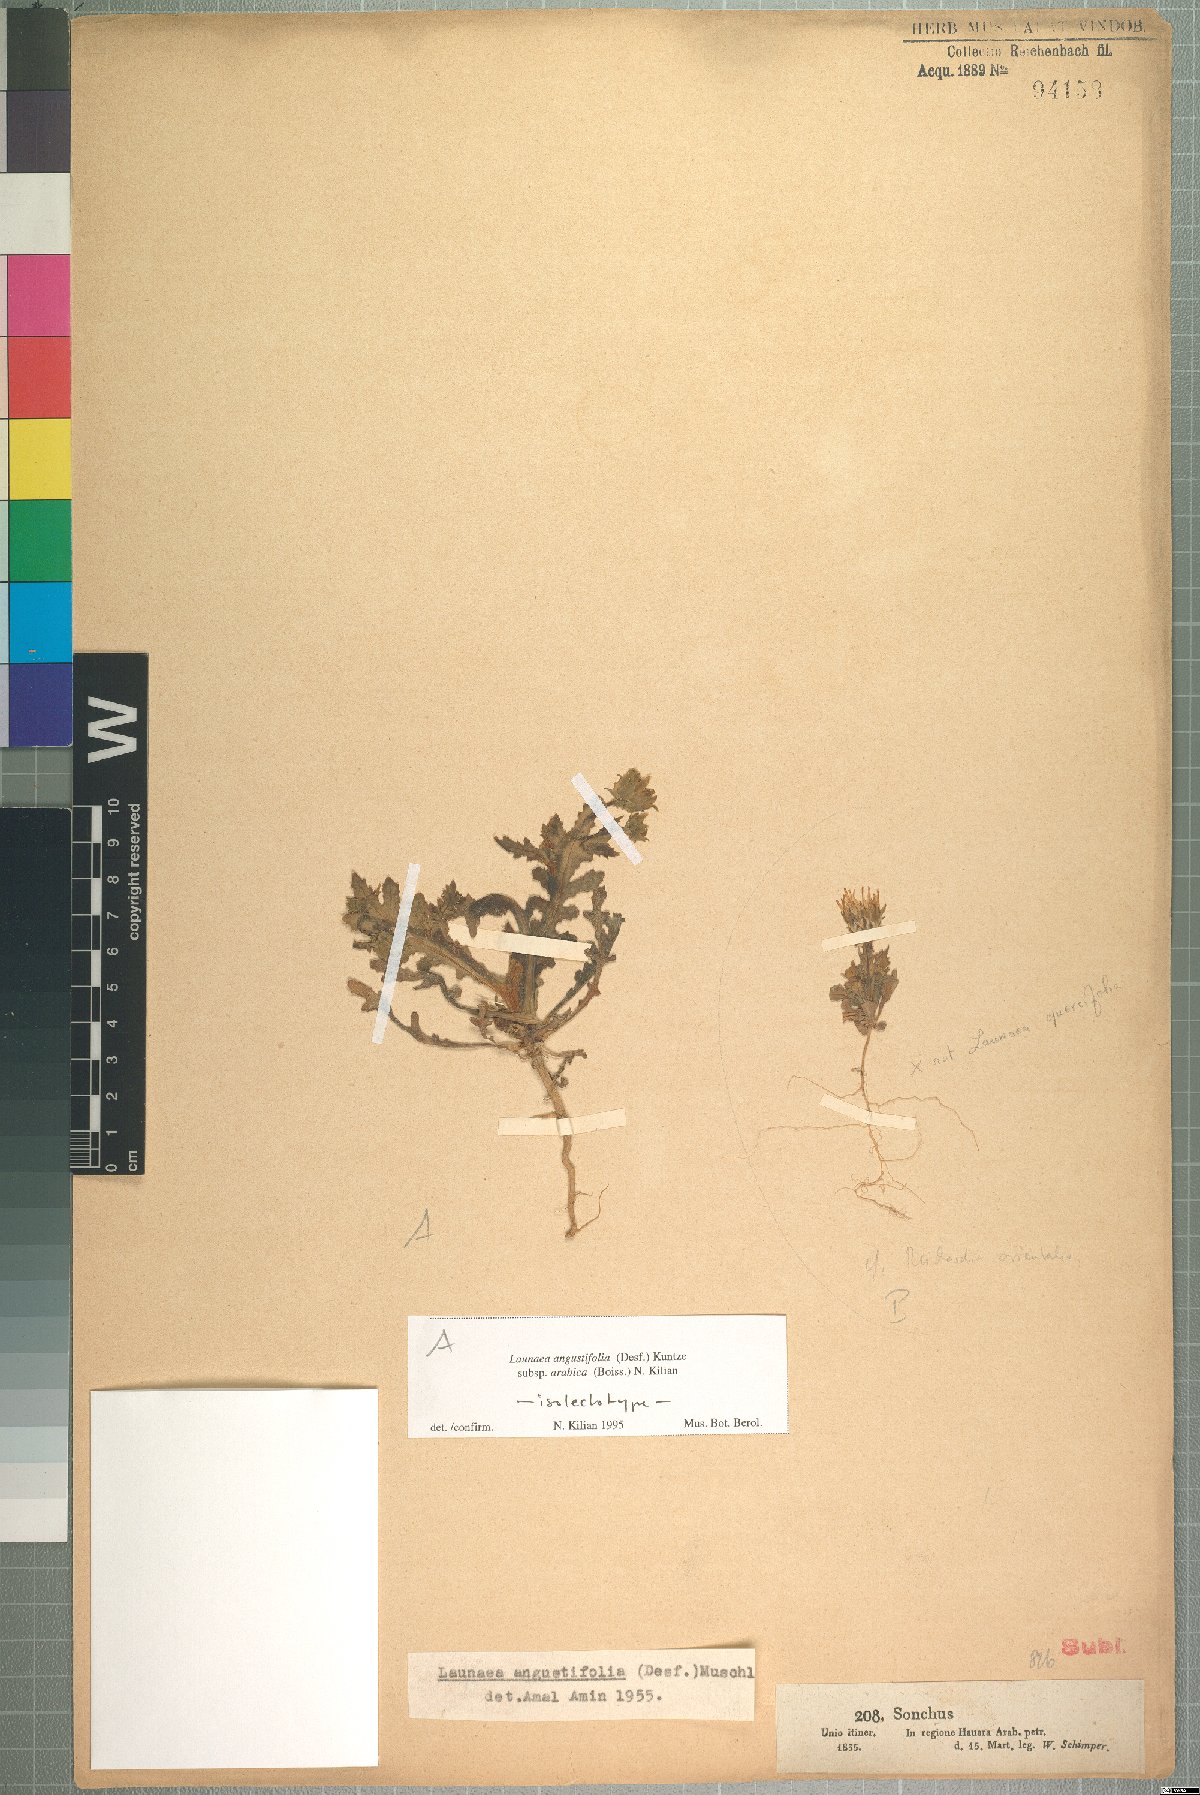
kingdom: Plantae
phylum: Tracheophyta
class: Magnoliopsida
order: Asterales
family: Asteraceae
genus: Launaea
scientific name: Launaea angustifolia
